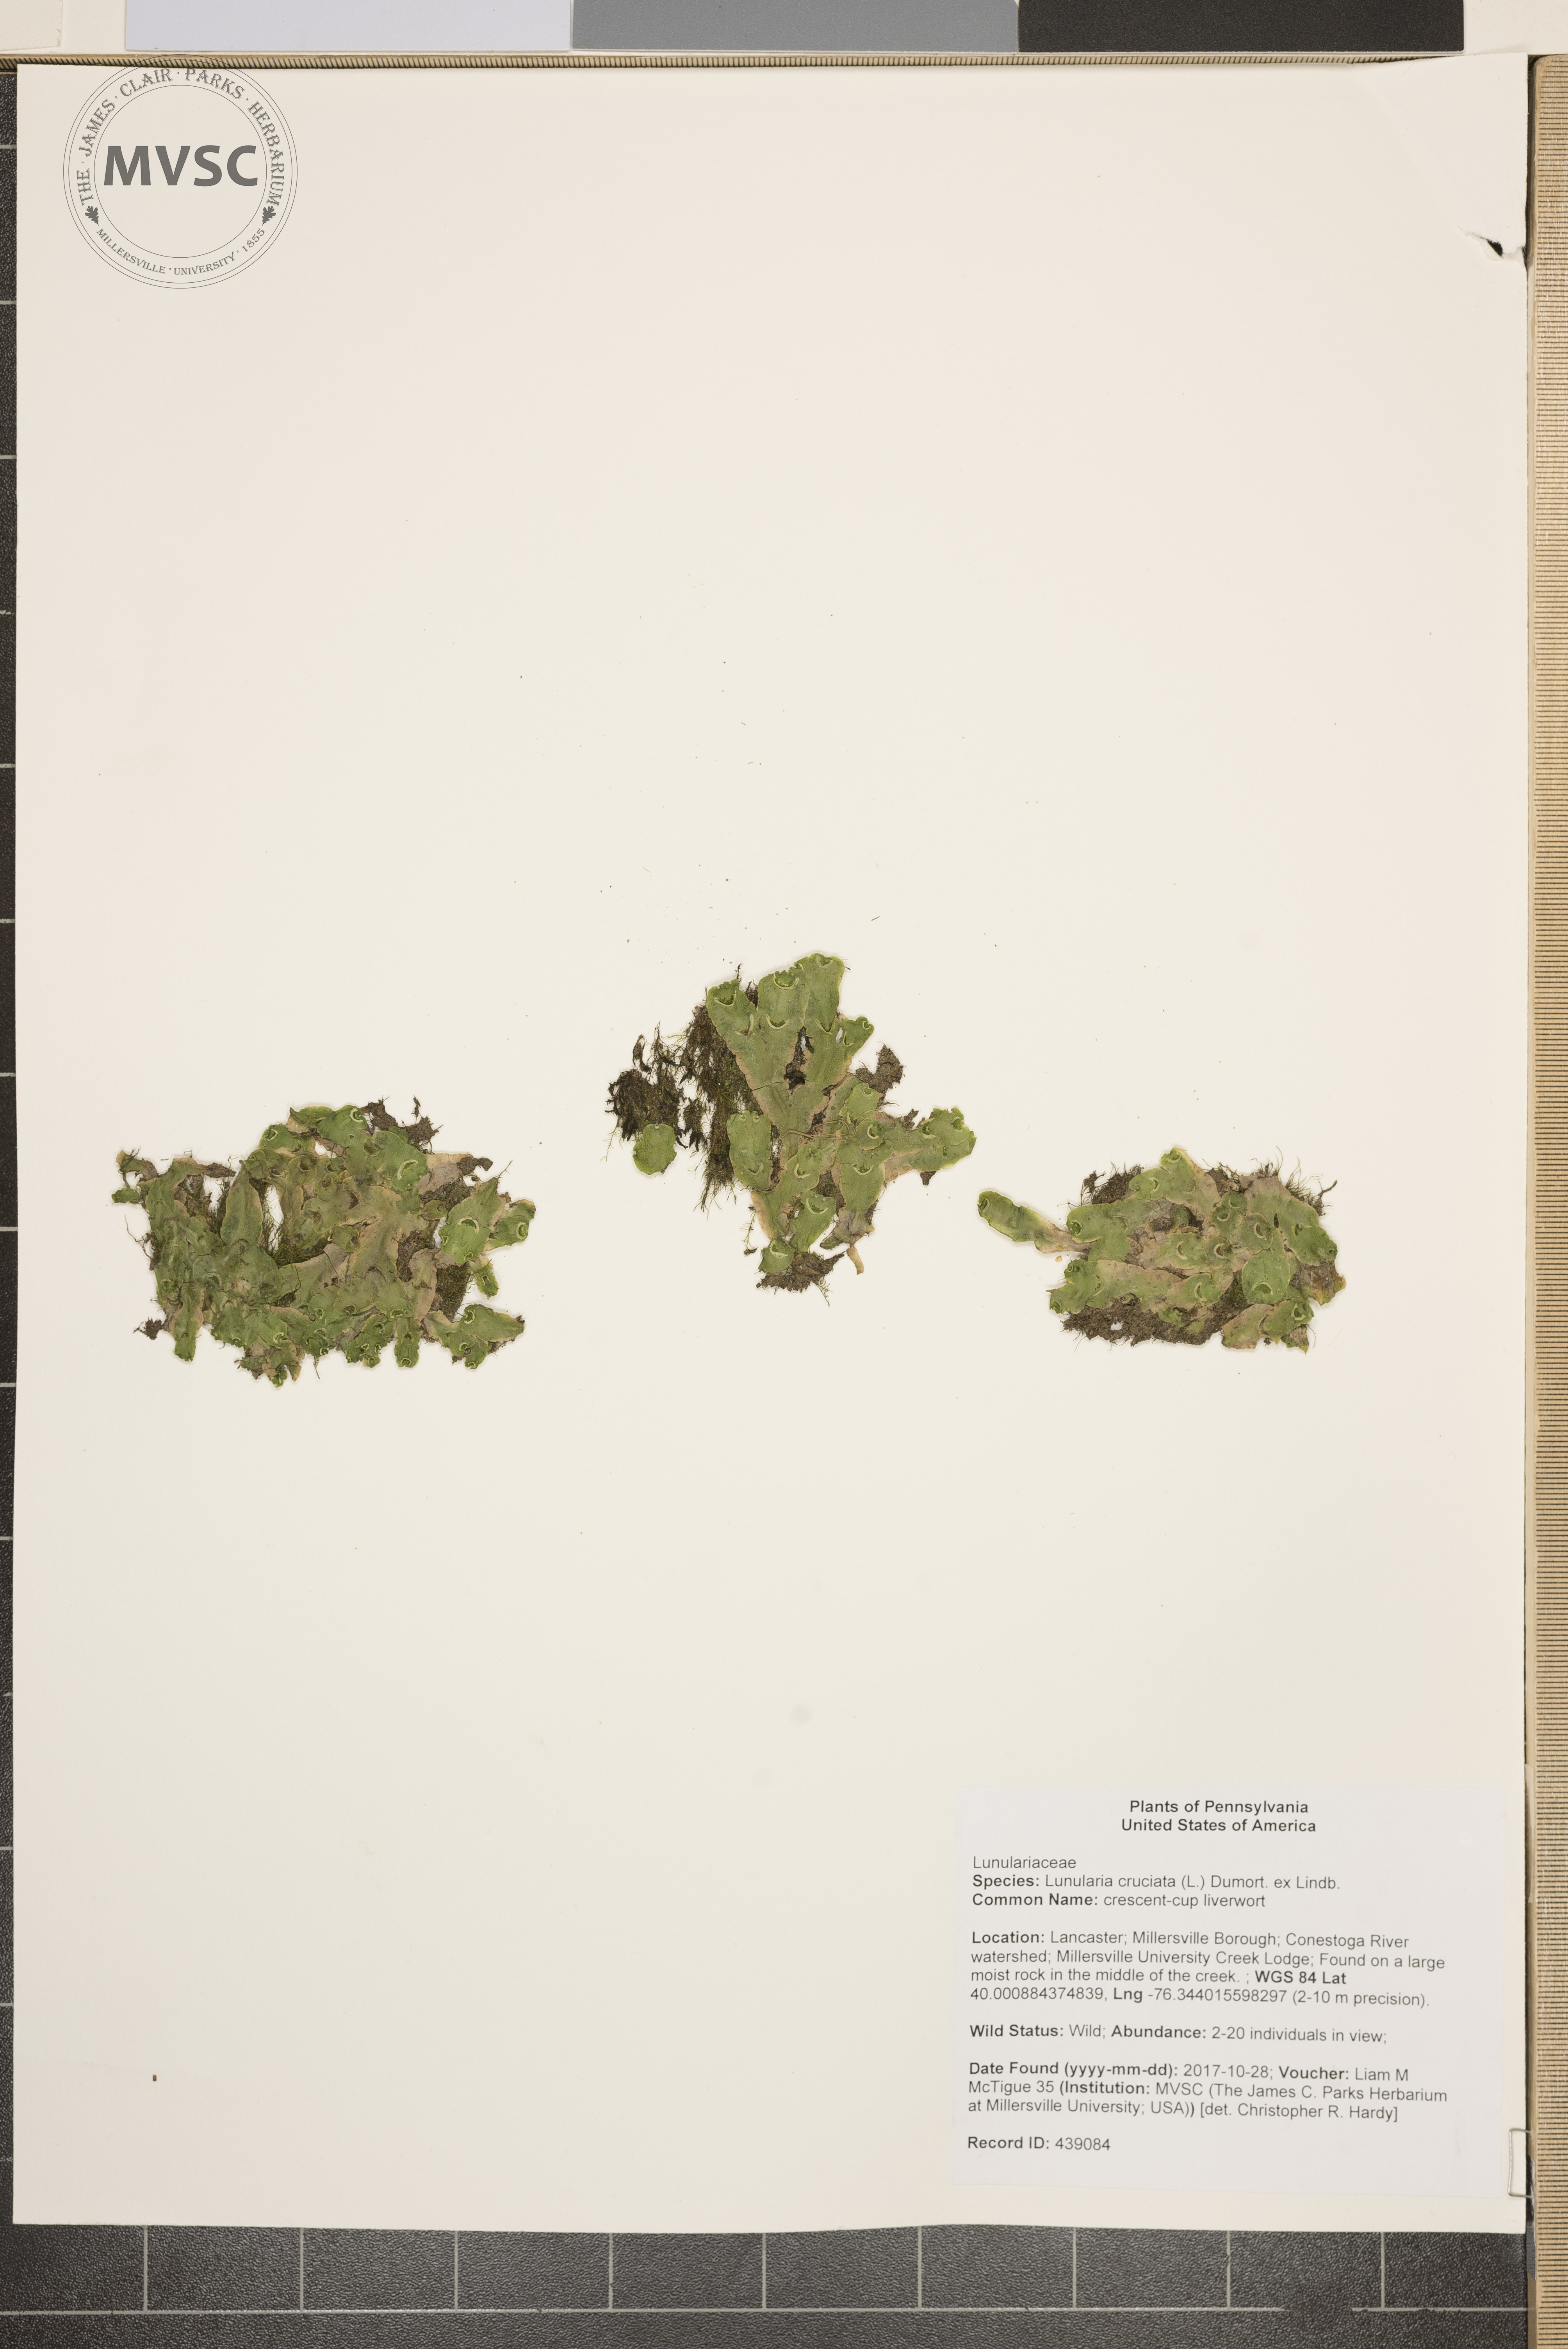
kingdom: Plantae
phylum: Marchantiophyta
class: Marchantiopsida
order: Lunulariales
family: Lunulariaceae
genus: Lunularia
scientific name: Lunularia cruciata
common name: crescent-cup liverwort
